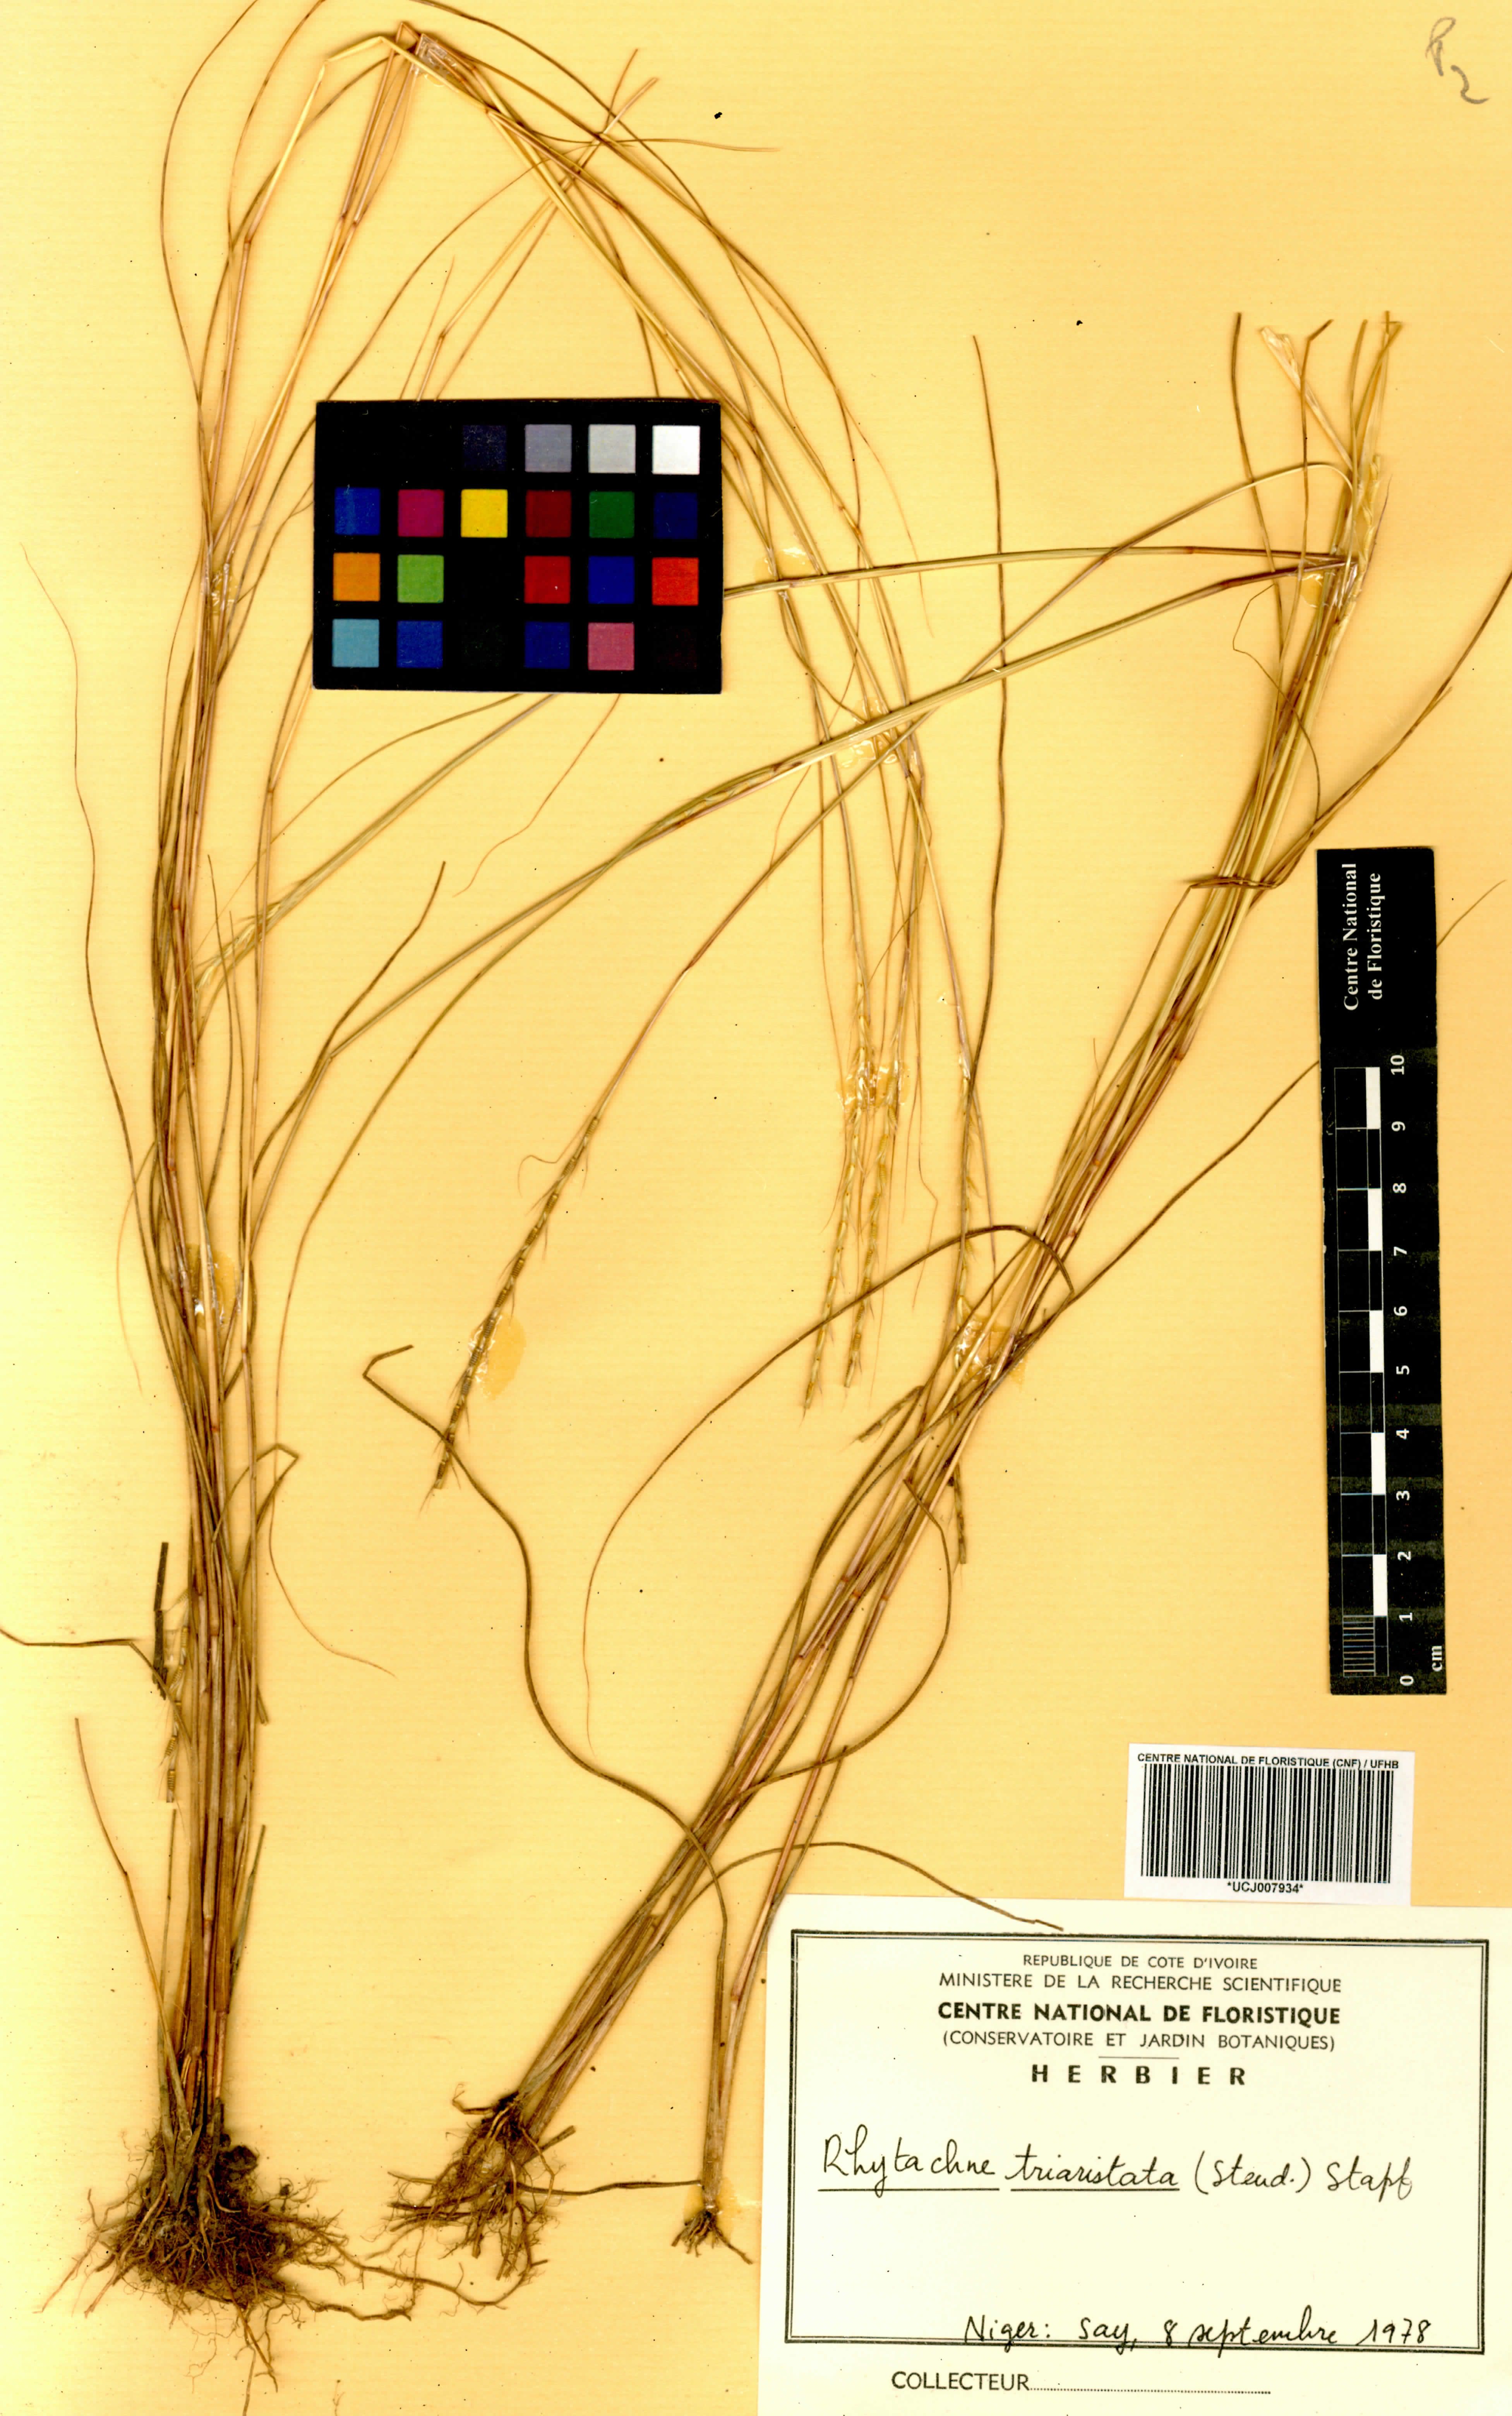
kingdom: Plantae
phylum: Tracheophyta
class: Liliopsida
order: Poales
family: Poaceae
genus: Rhytachne
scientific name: Rhytachne triaristata
